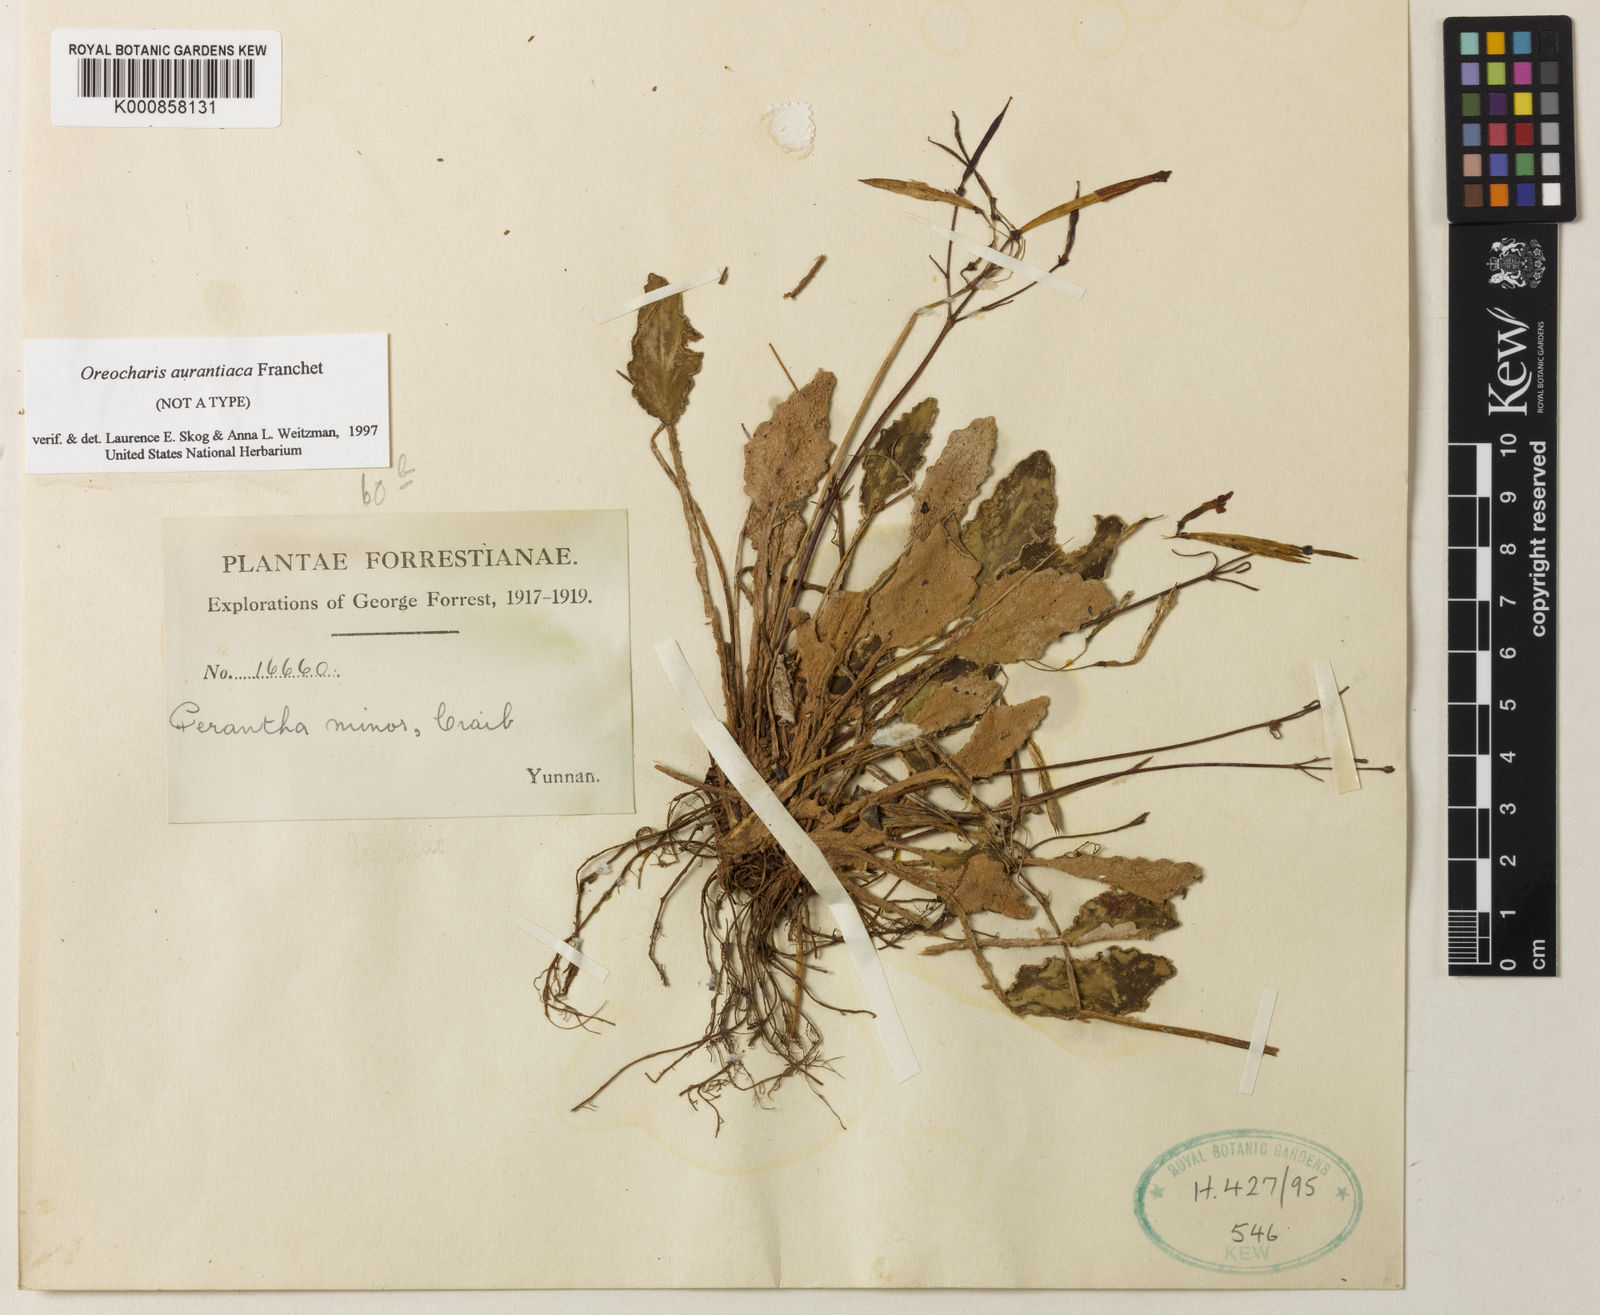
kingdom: Plantae
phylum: Tracheophyta
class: Magnoliopsida
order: Lamiales
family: Gesneriaceae
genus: Oreocharis
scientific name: Oreocharis minor
